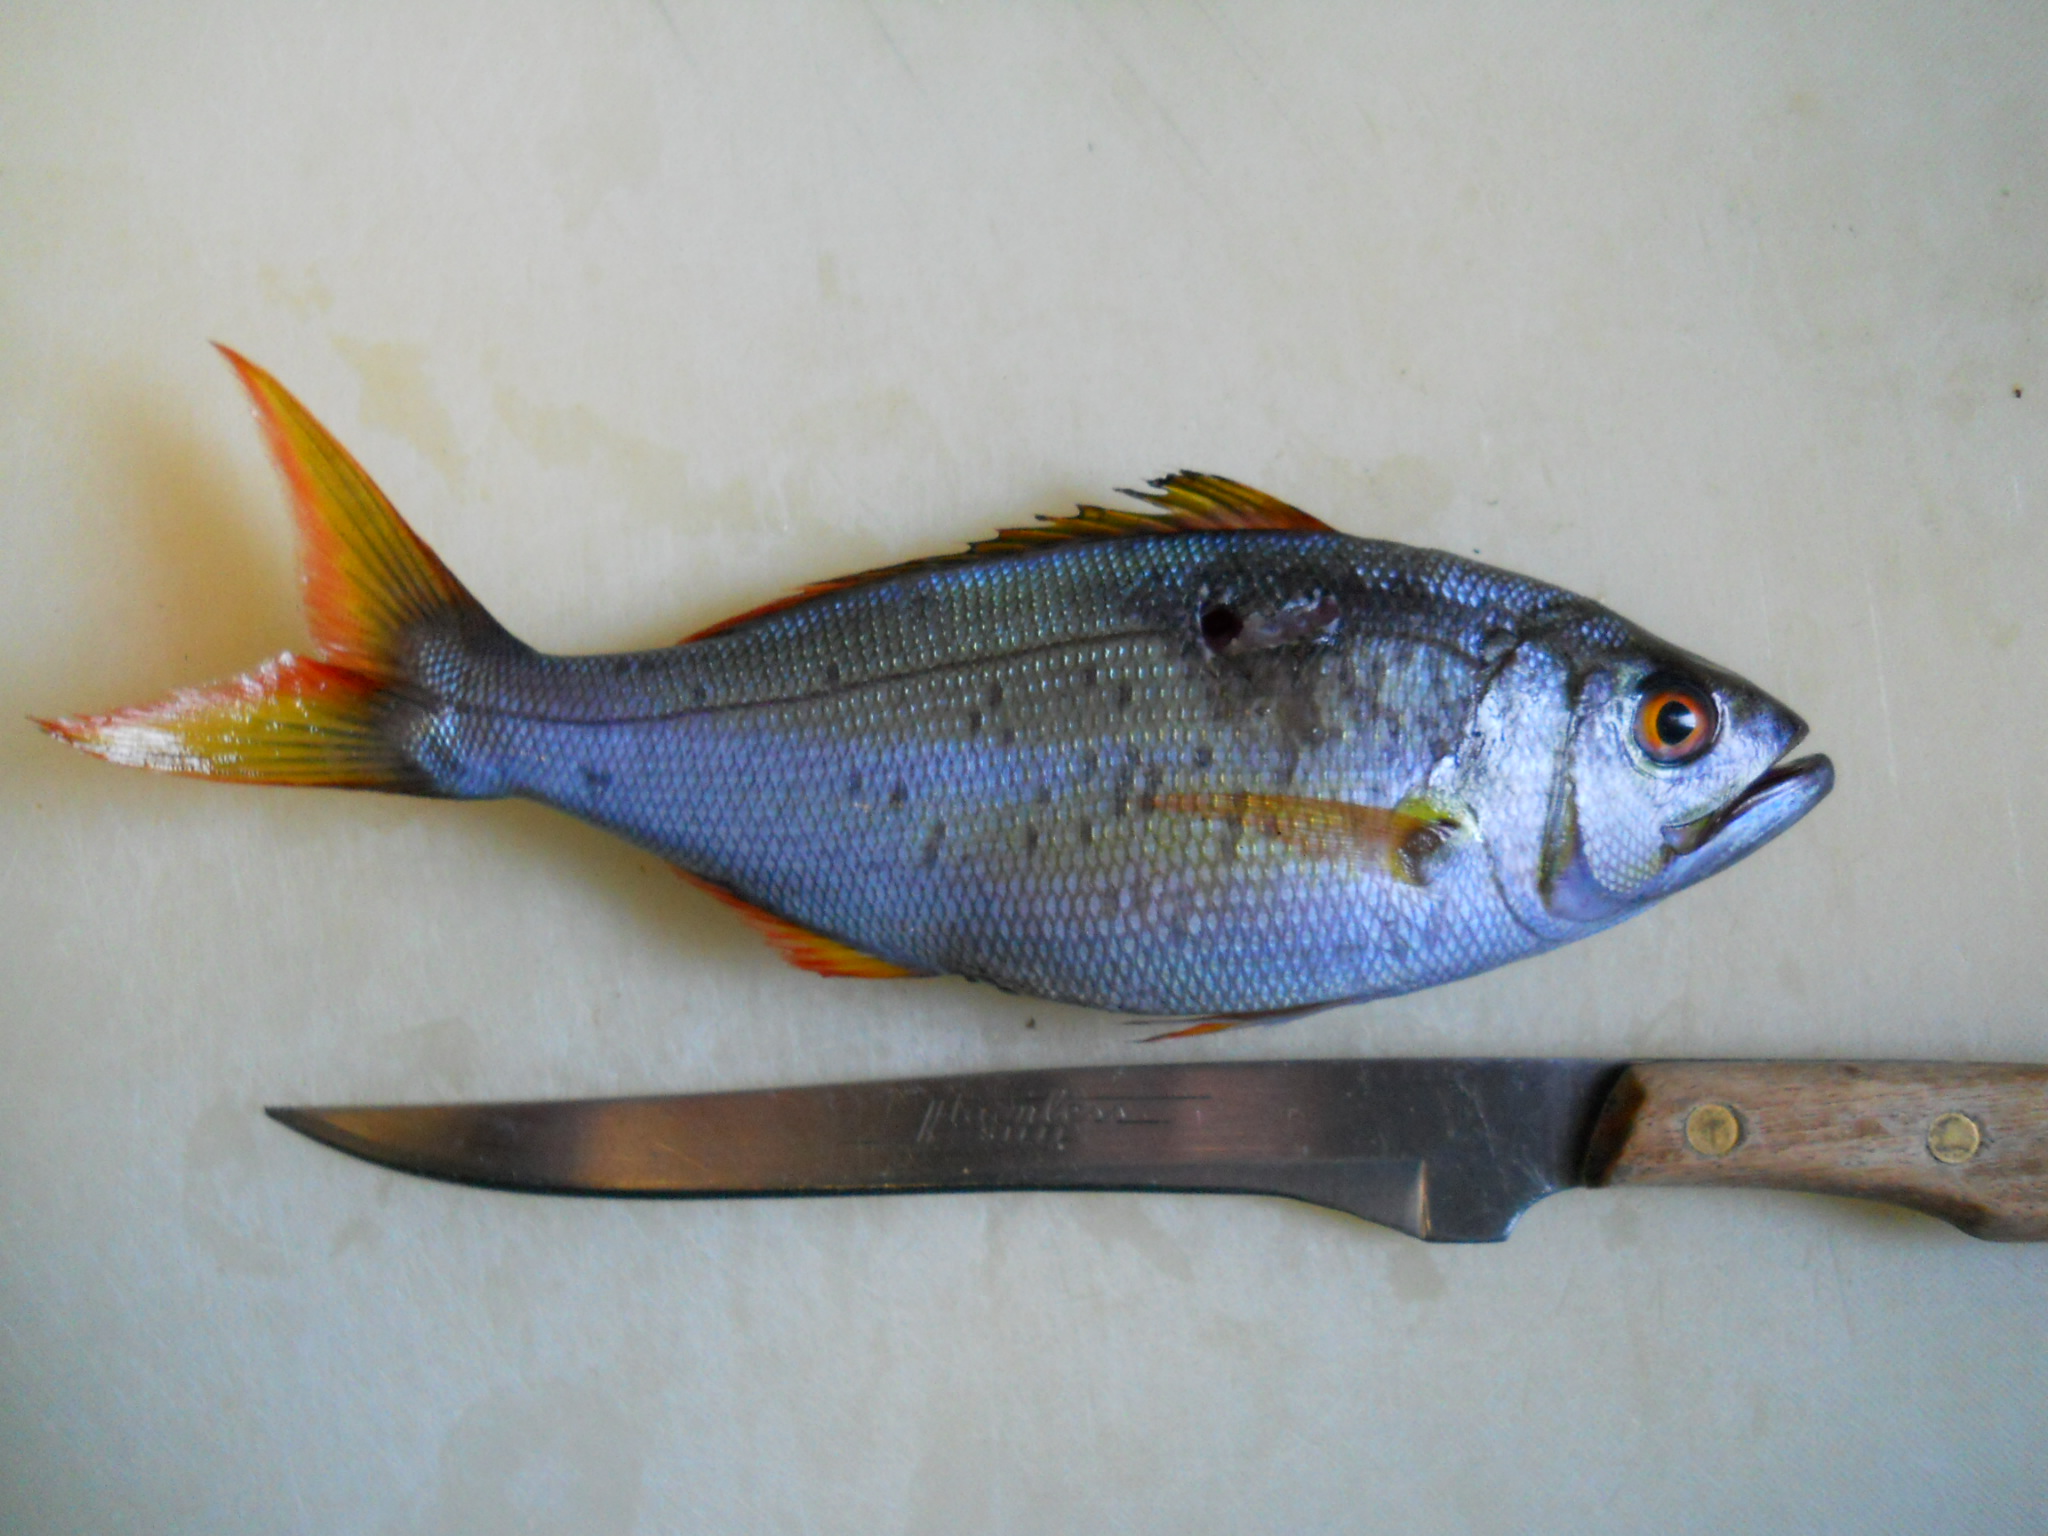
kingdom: Animalia
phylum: Chordata
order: Perciformes
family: Lutjanidae
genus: Aphareus
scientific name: Aphareus furca
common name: Smalltooth jobfish
